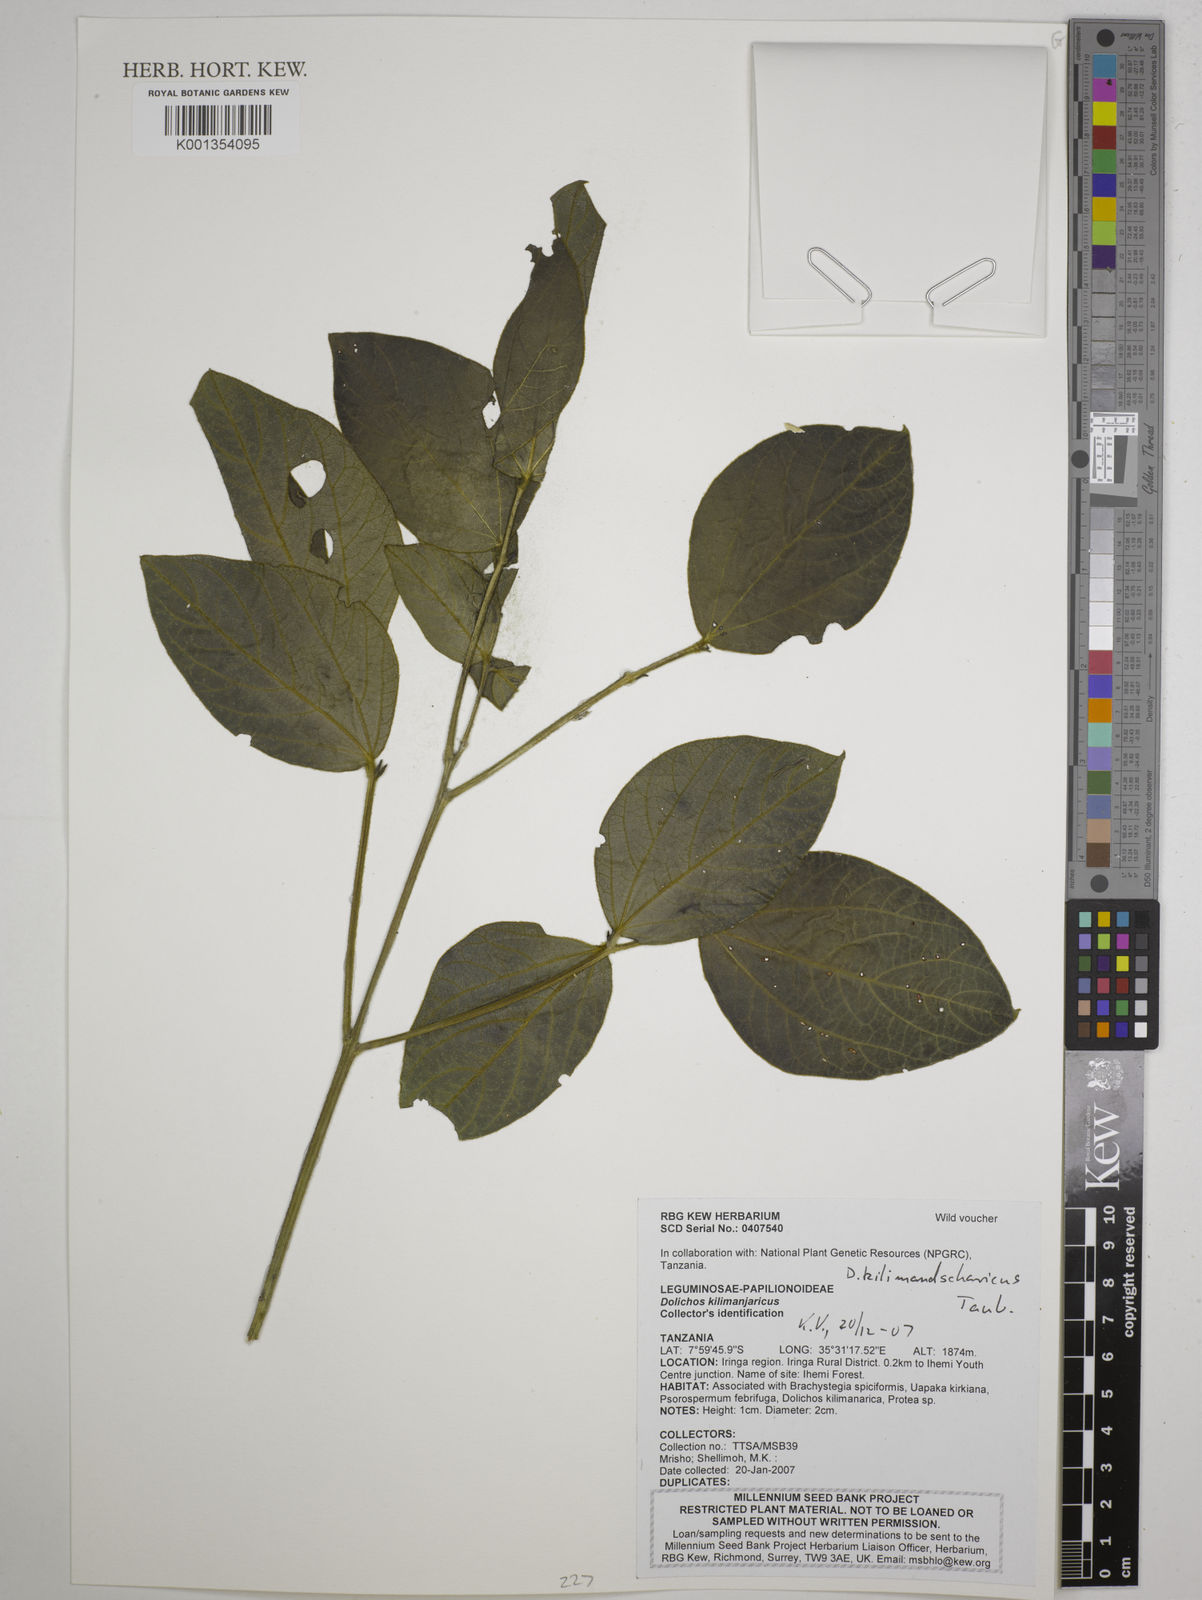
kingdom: Plantae
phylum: Tracheophyta
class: Magnoliopsida
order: Fabales
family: Fabaceae
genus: Dolichos
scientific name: Dolichos kilimandscharicus
